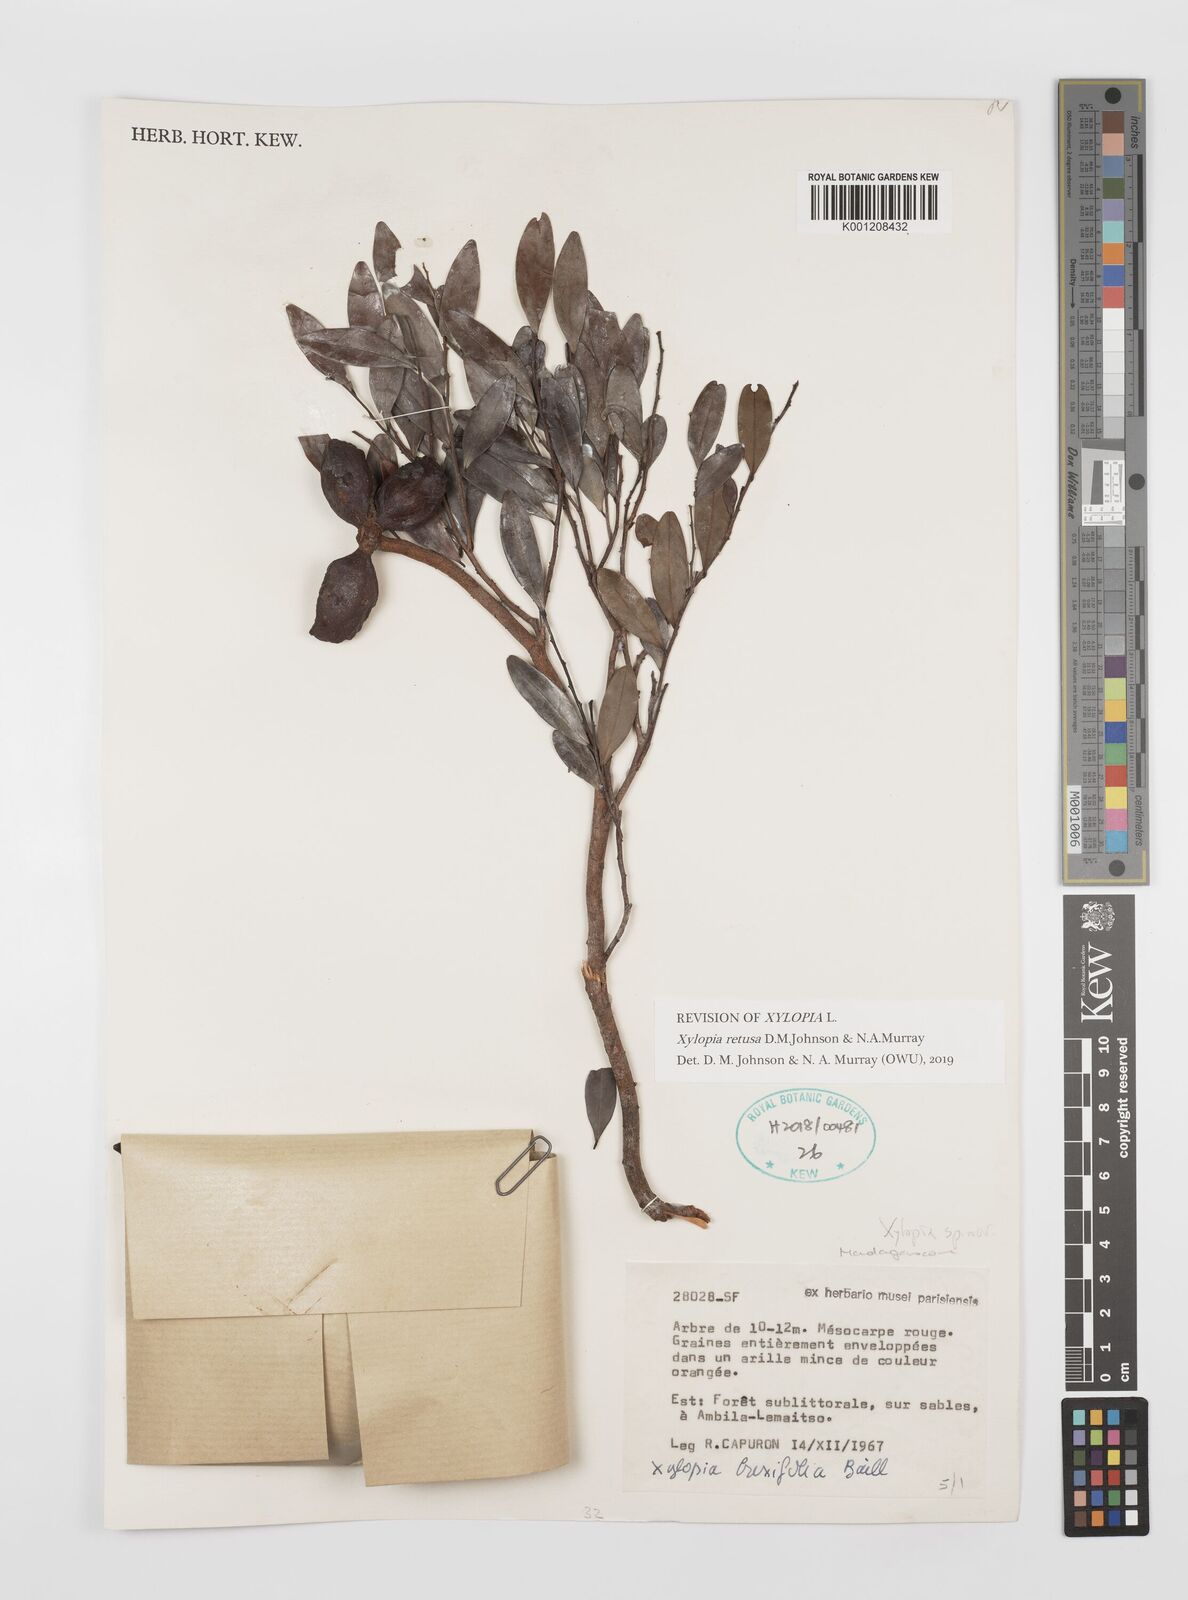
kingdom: Plantae
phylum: Tracheophyta
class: Magnoliopsida
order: Magnoliales
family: Annonaceae
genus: Xylopia
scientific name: Xylopia buxifolia
